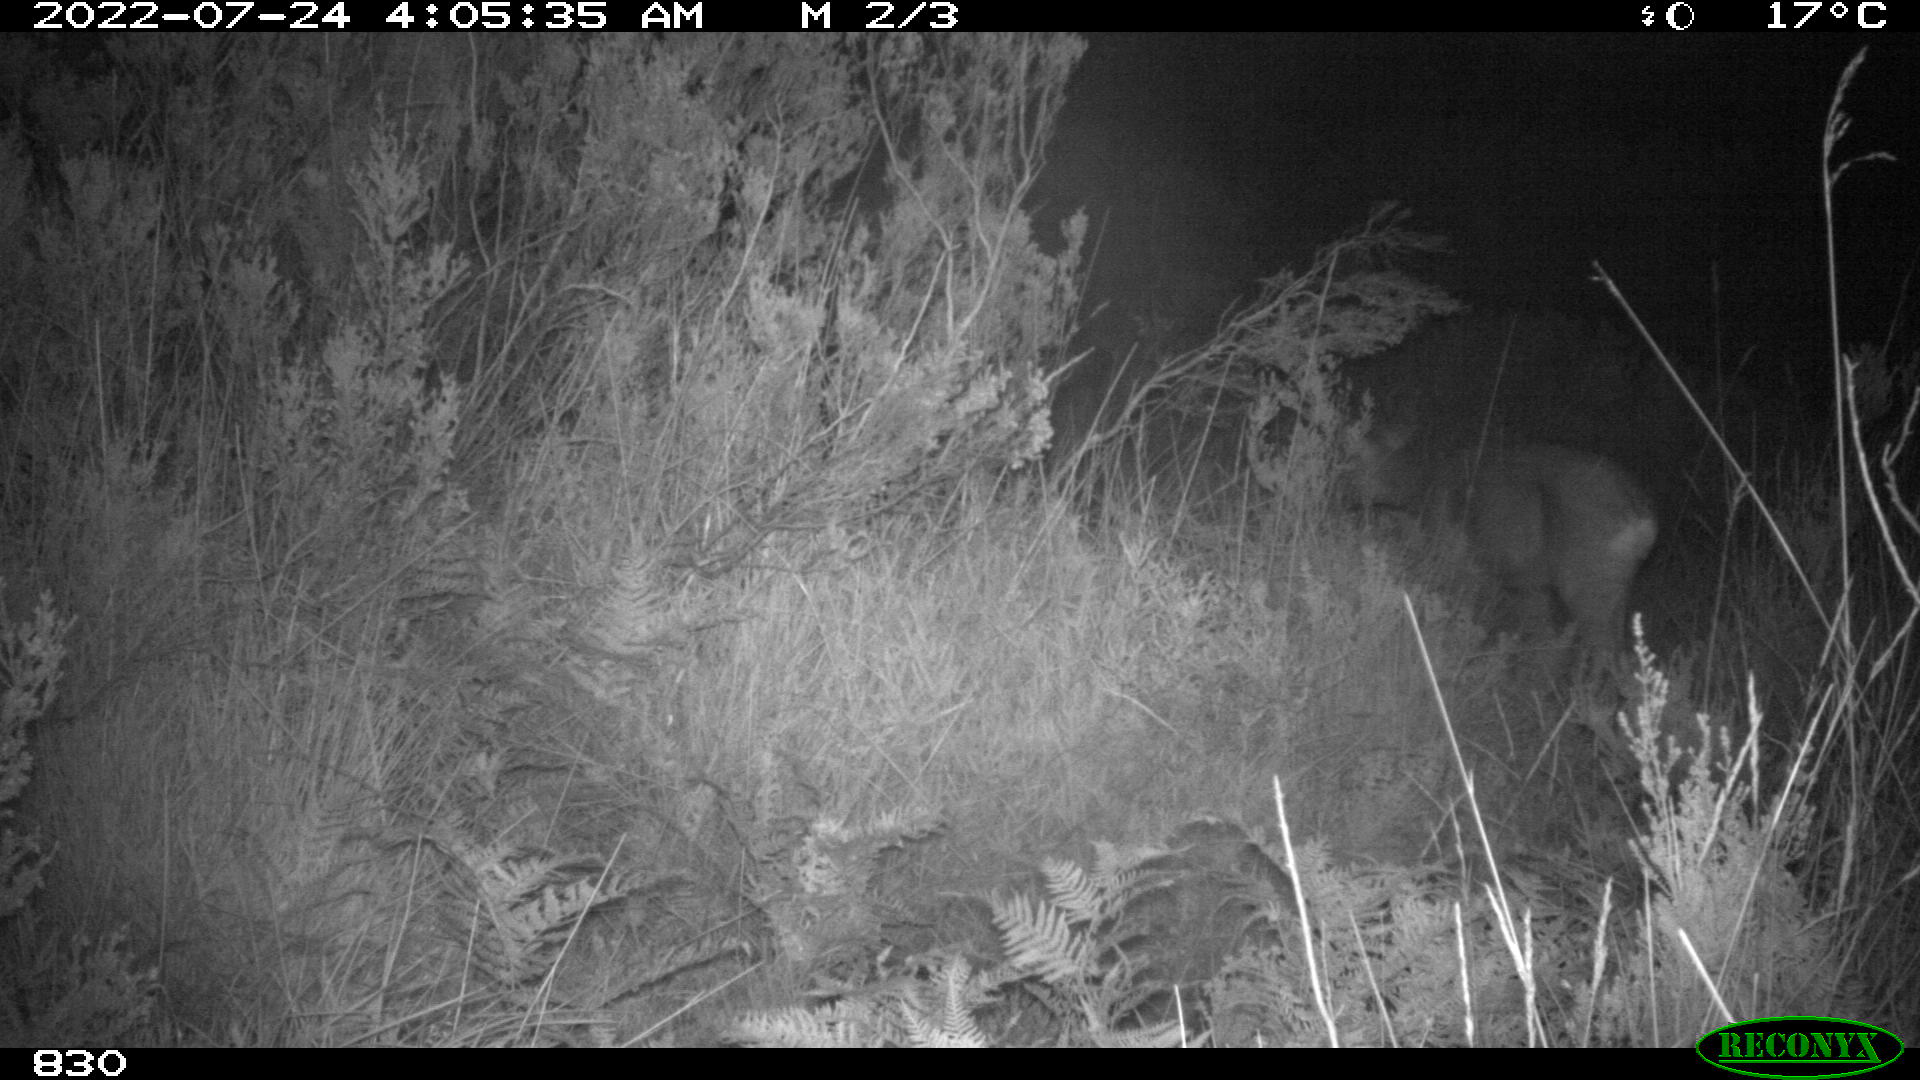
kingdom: Animalia
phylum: Chordata
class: Mammalia
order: Artiodactyla
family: Cervidae
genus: Capreolus
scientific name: Capreolus capreolus
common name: Western roe deer
